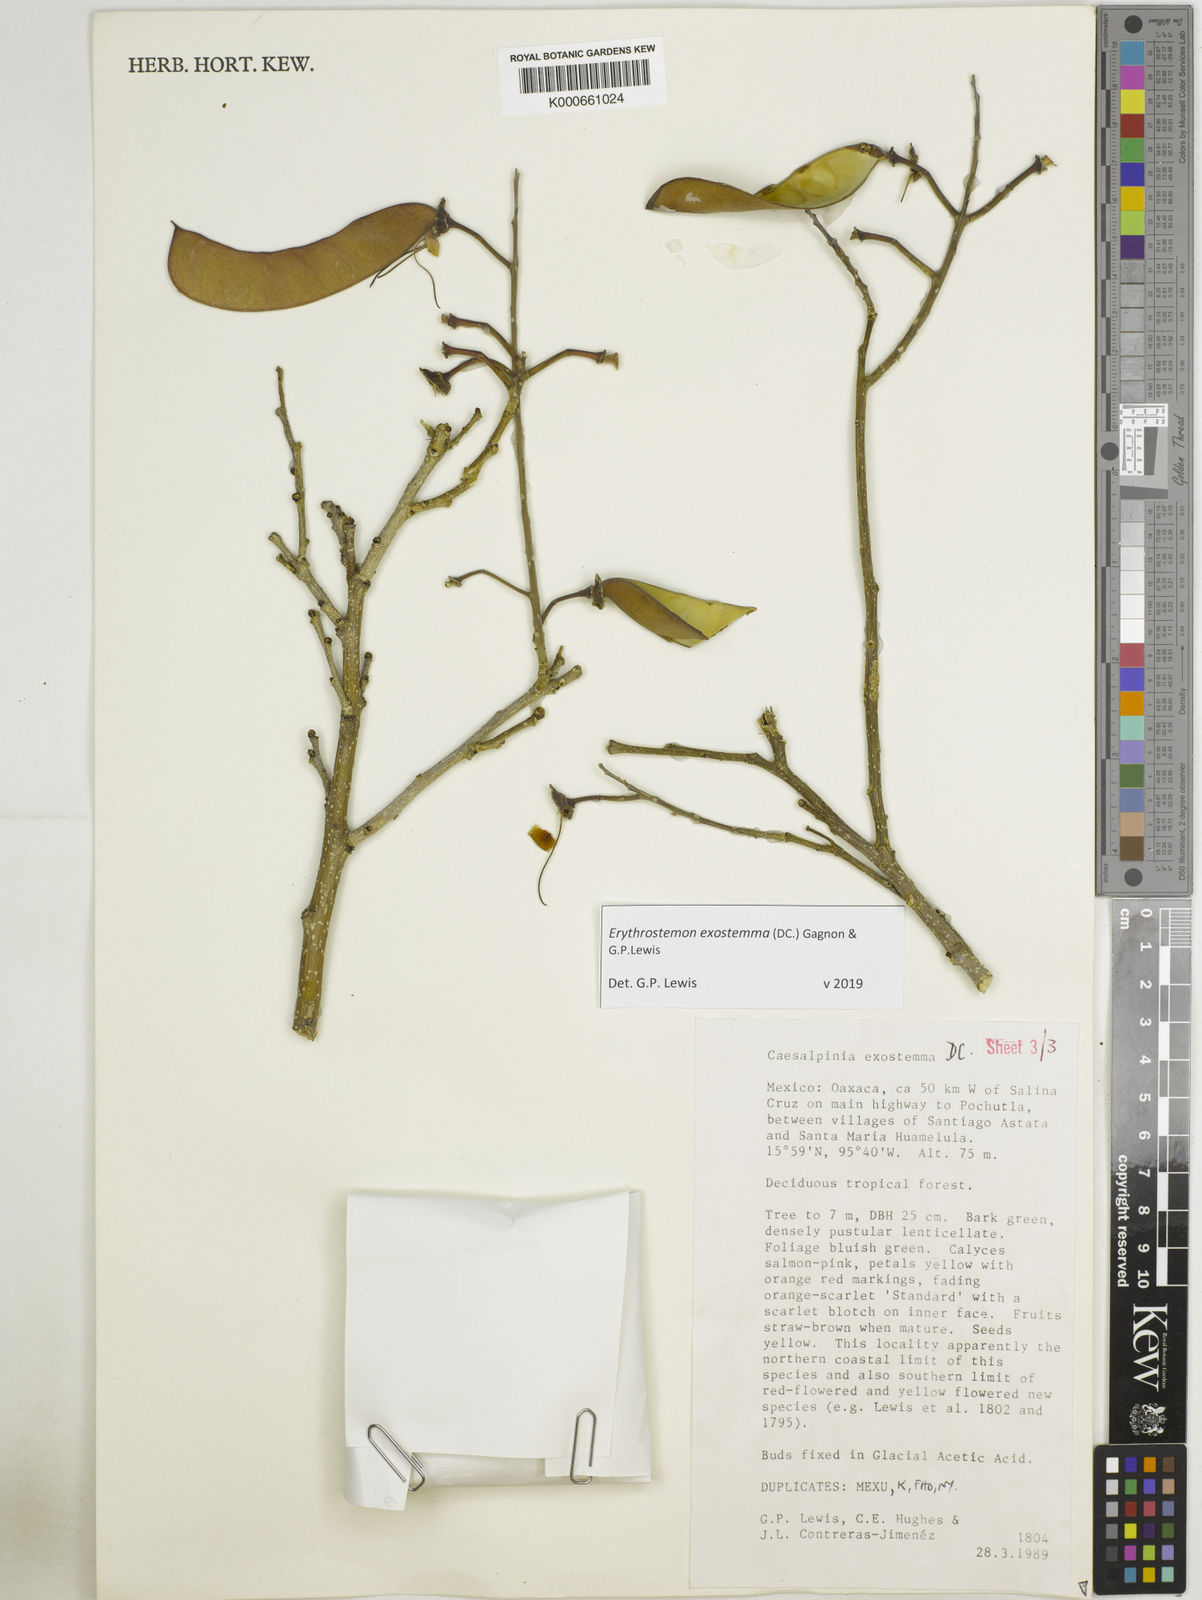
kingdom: Plantae
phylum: Tracheophyta
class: Magnoliopsida
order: Fabales
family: Fabaceae
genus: Erythrostemon
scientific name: Erythrostemon exostemma
